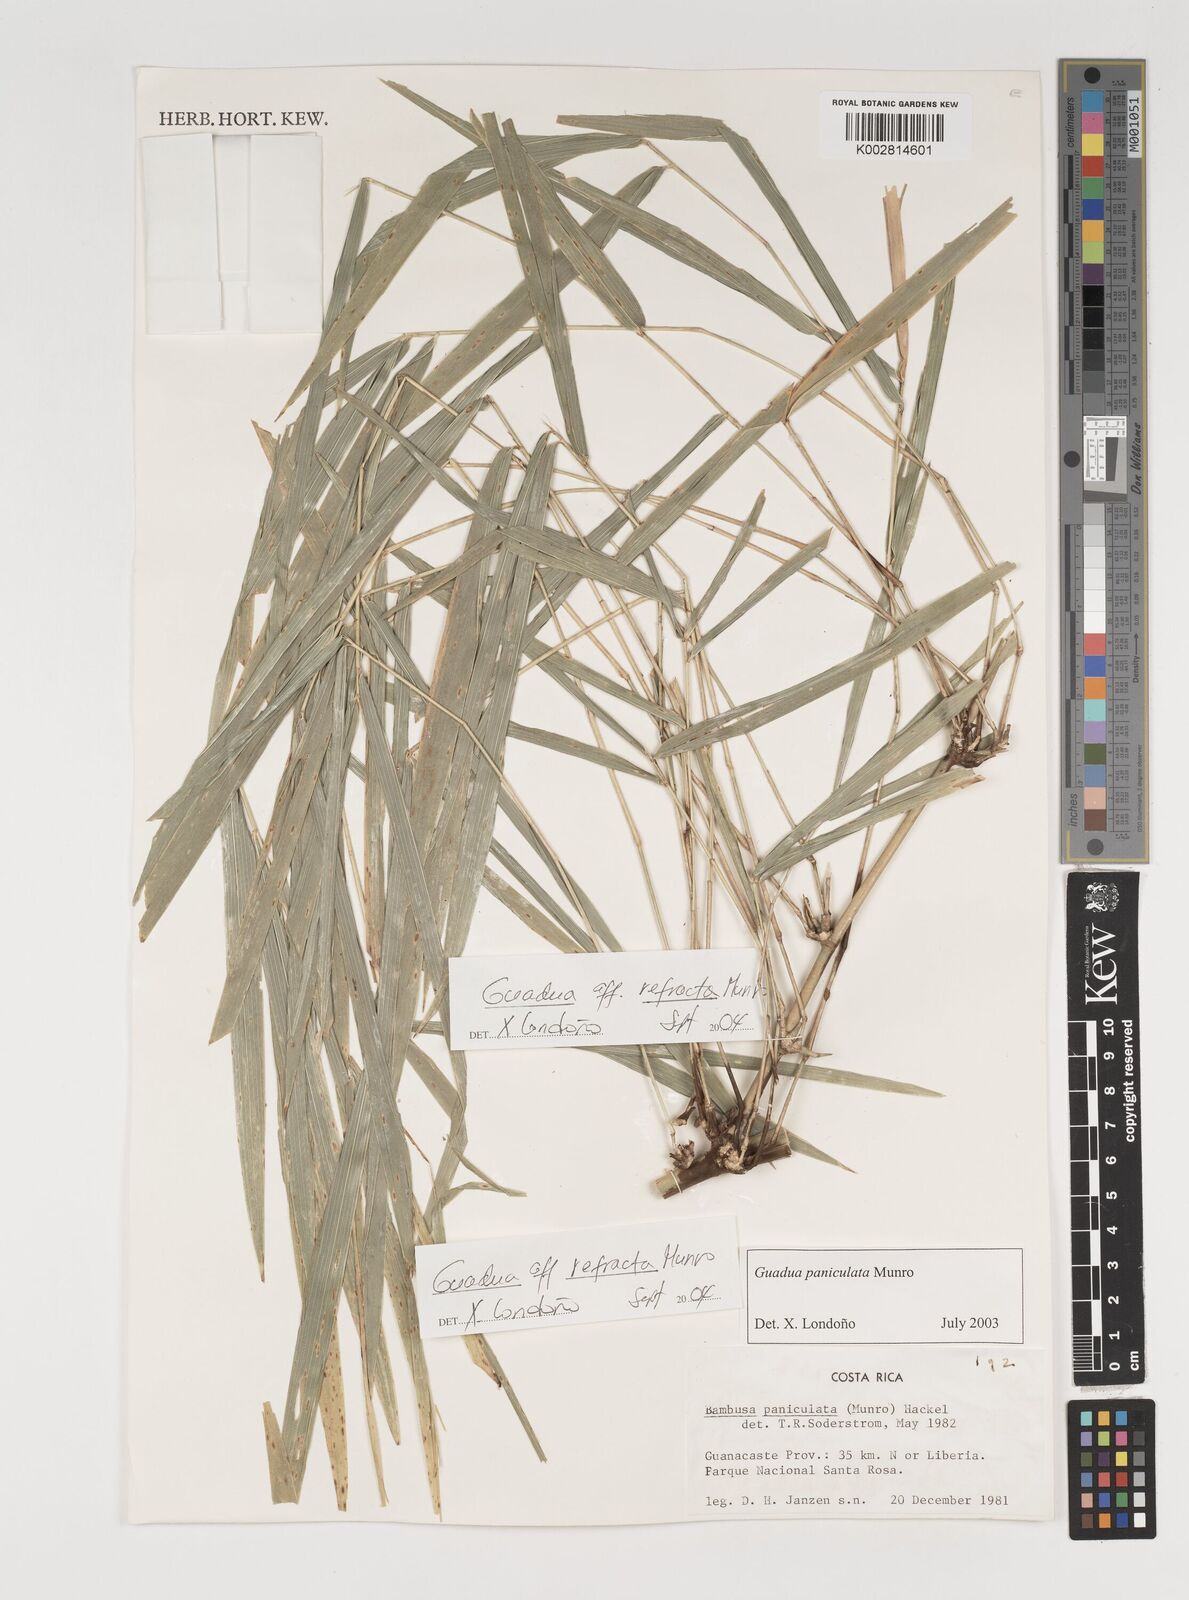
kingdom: Plantae
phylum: Tracheophyta
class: Liliopsida
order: Poales
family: Poaceae
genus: Guadua
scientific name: Guadua
